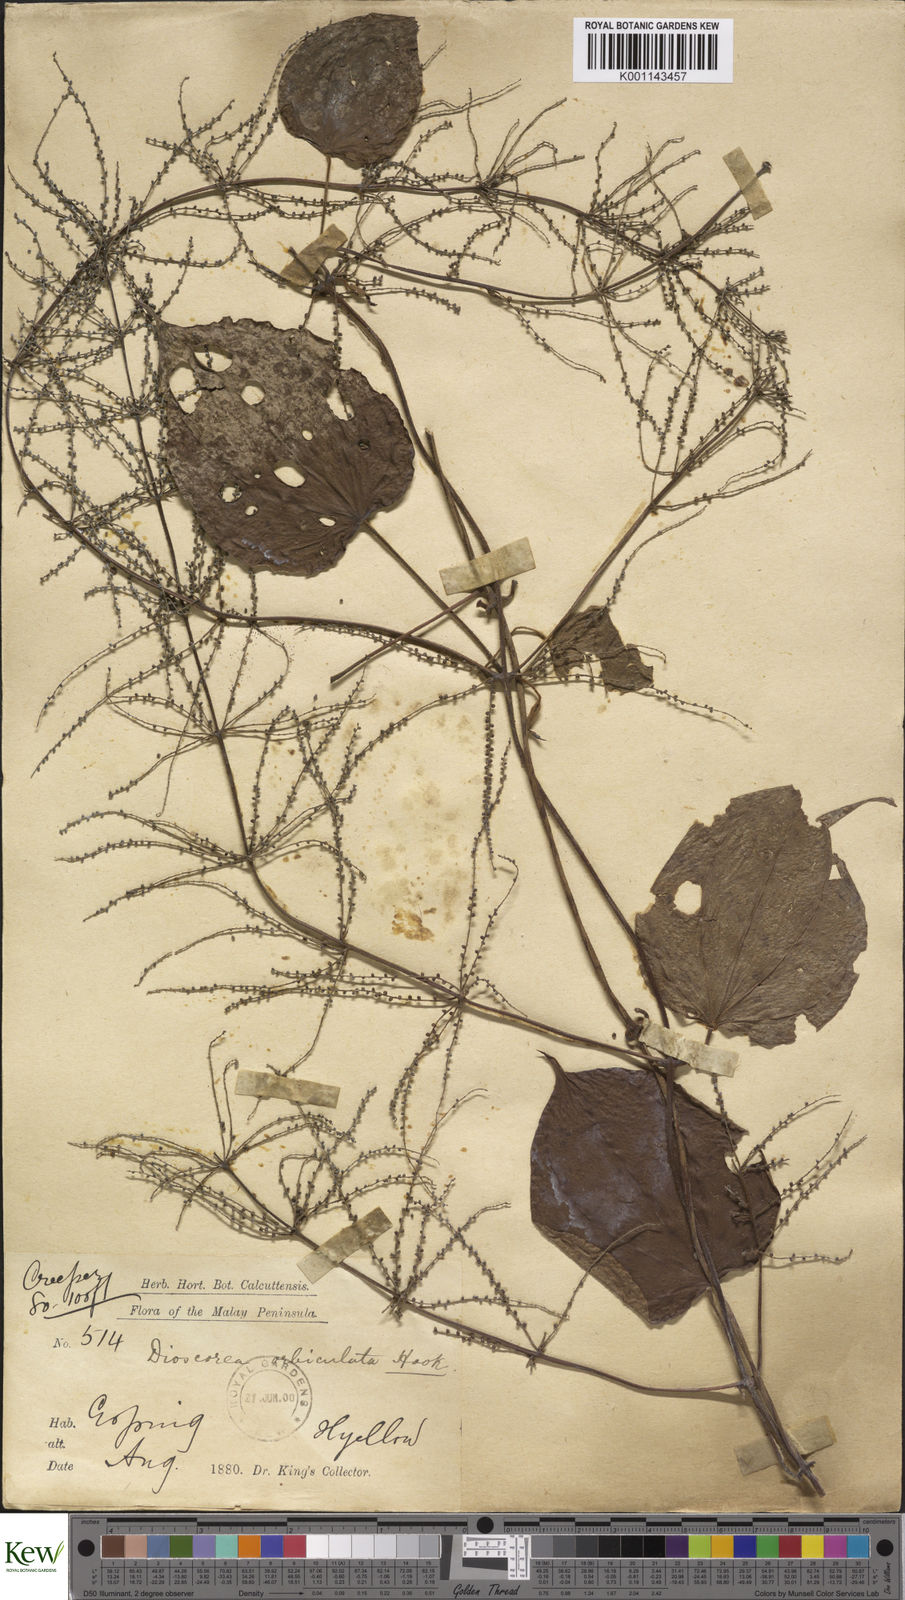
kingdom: Plantae
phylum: Tracheophyta
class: Liliopsida
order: Dioscoreales
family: Dioscoreaceae
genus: Dioscorea
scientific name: Dioscorea orbiculata
